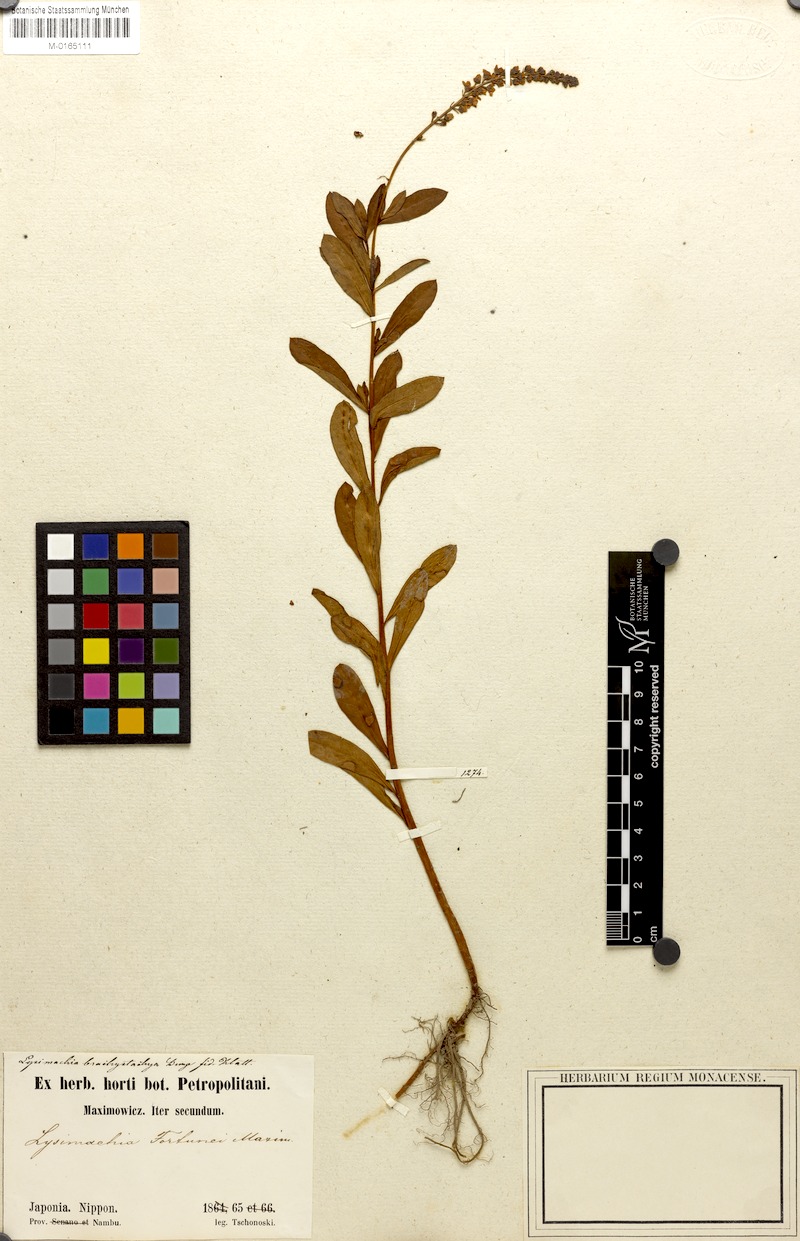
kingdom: Plantae
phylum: Tracheophyta
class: Magnoliopsida
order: Ericales
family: Primulaceae
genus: Lysimachia
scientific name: Lysimachia fortunei
